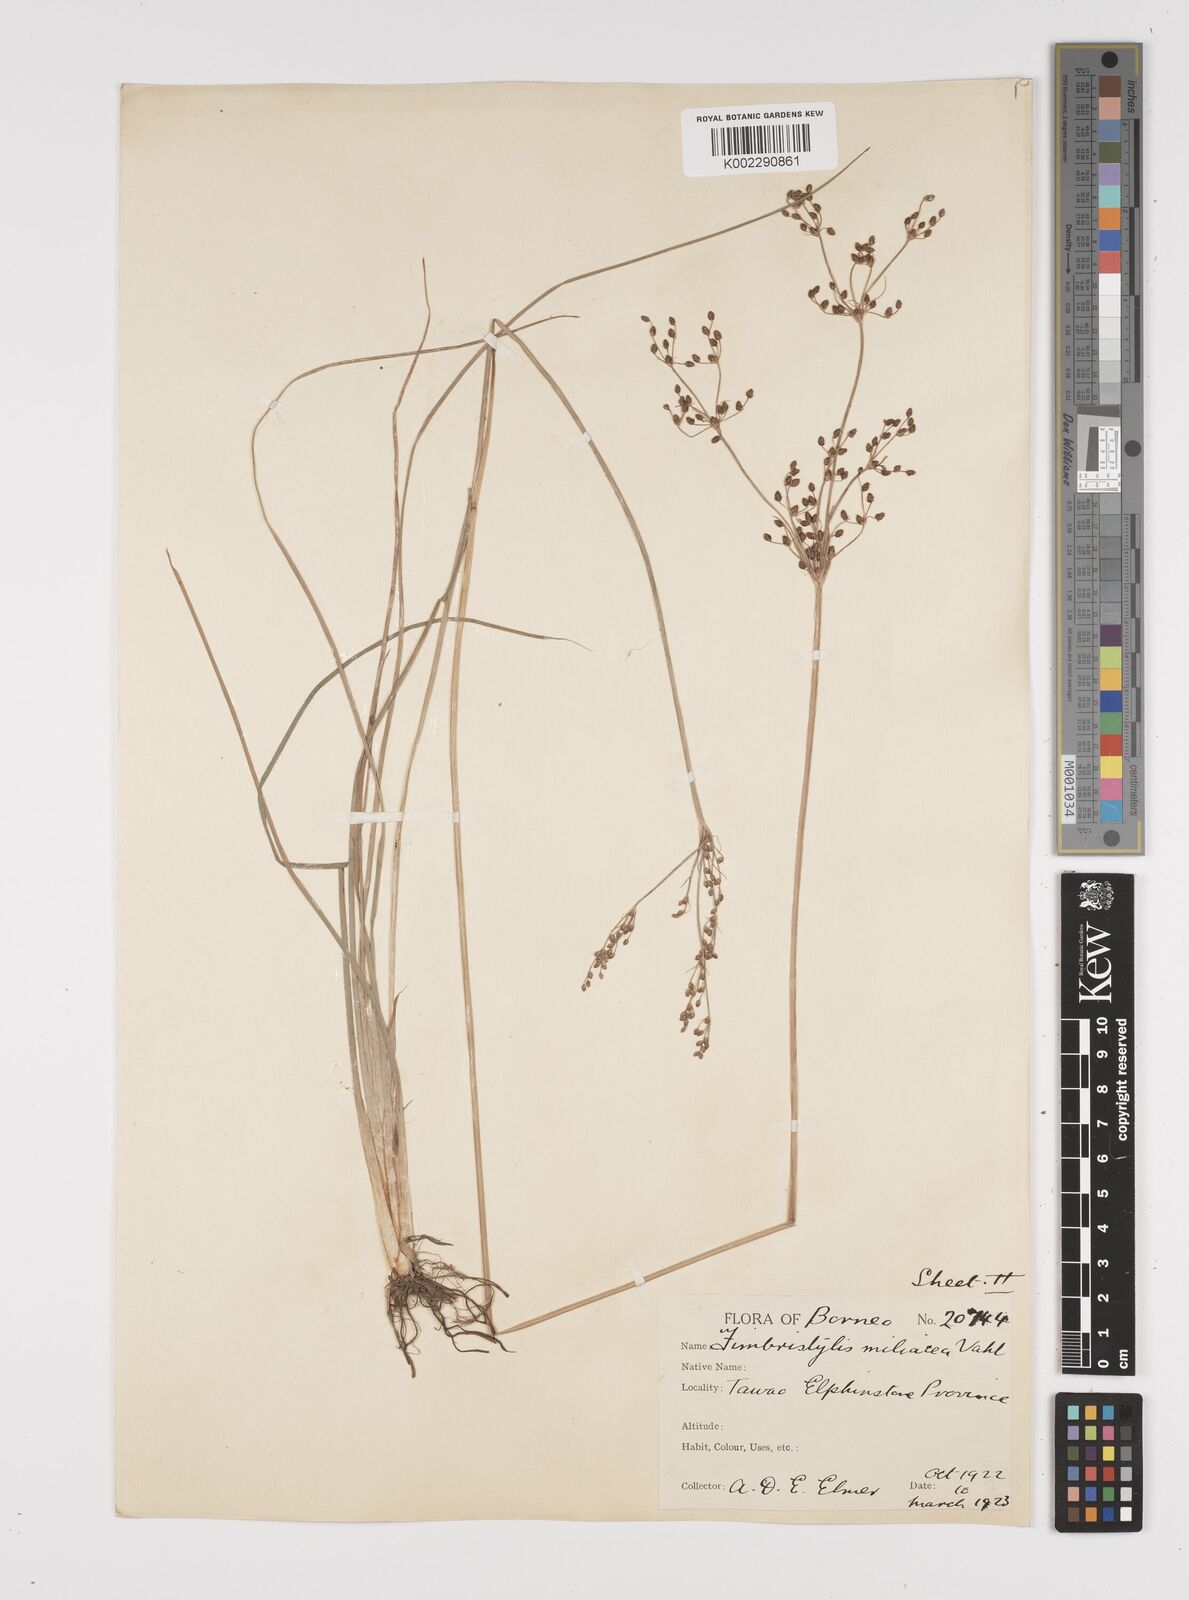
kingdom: Plantae
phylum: Tracheophyta
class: Liliopsida
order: Poales
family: Cyperaceae
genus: Fimbristylis
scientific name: Fimbristylis littoralis
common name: Fimbry
